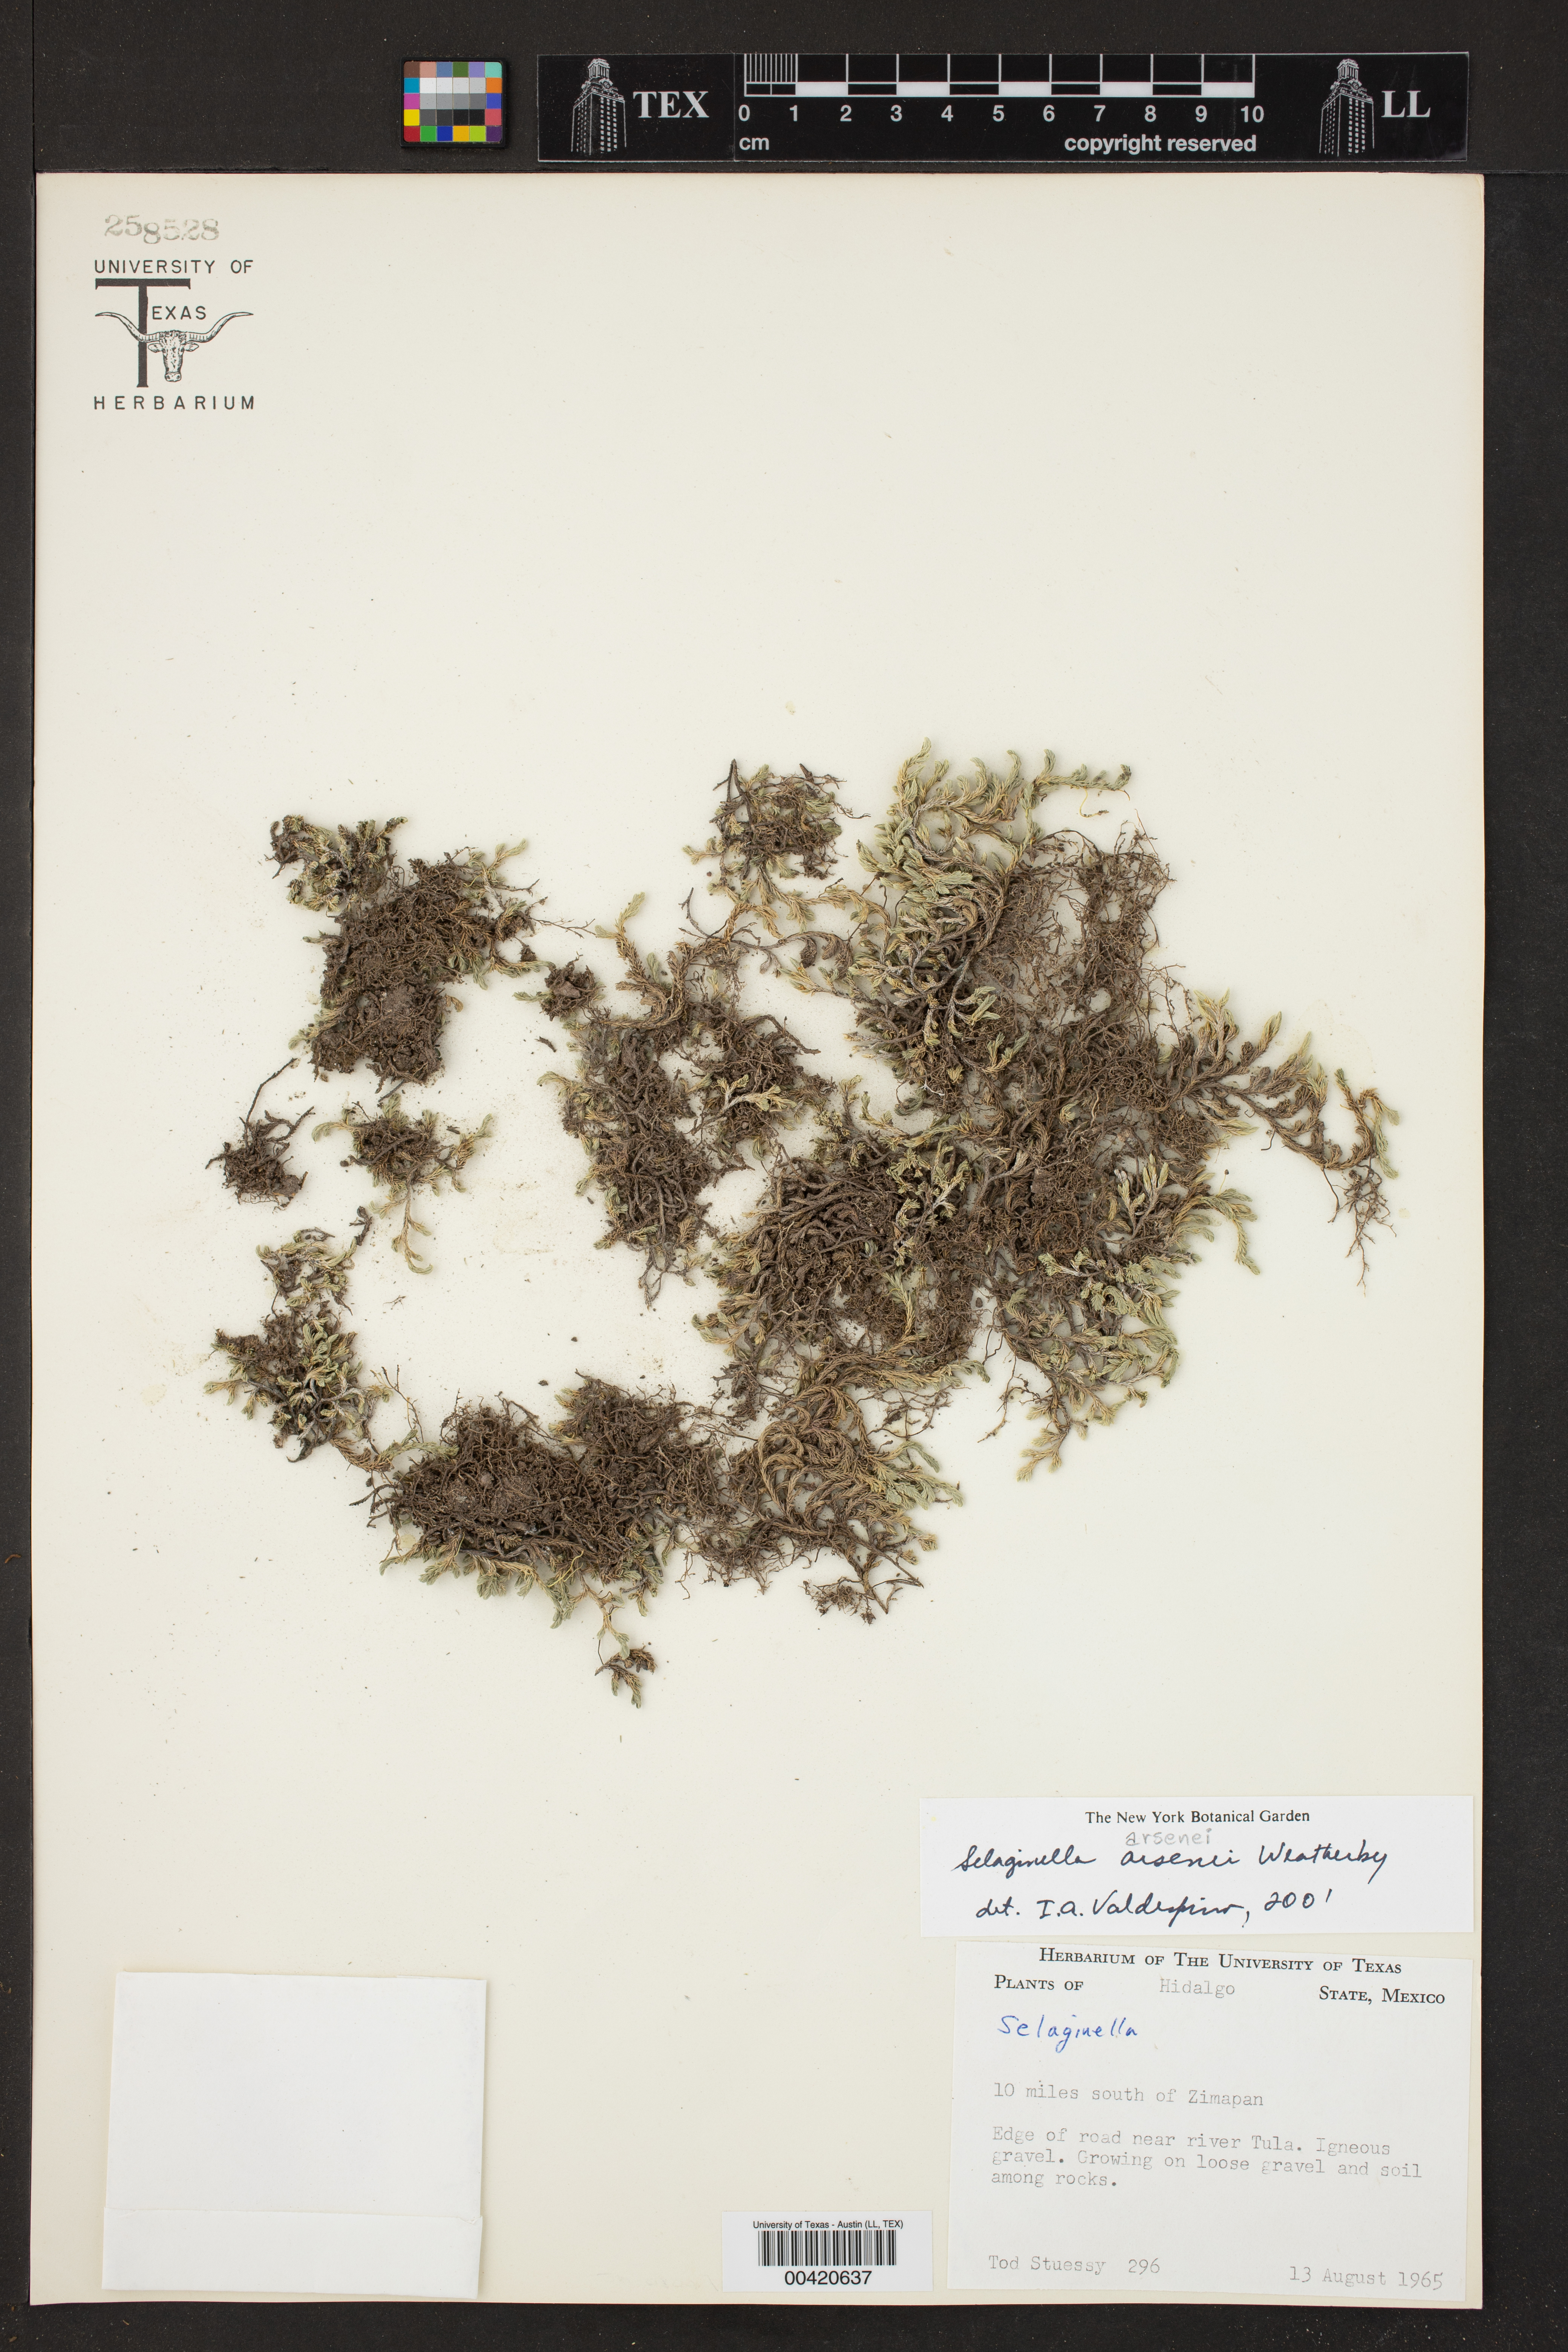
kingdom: Plantae
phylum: Tracheophyta
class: Lycopodiopsida
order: Selaginellales
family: Selaginellaceae
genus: Selaginella
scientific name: Selaginella arsenei
